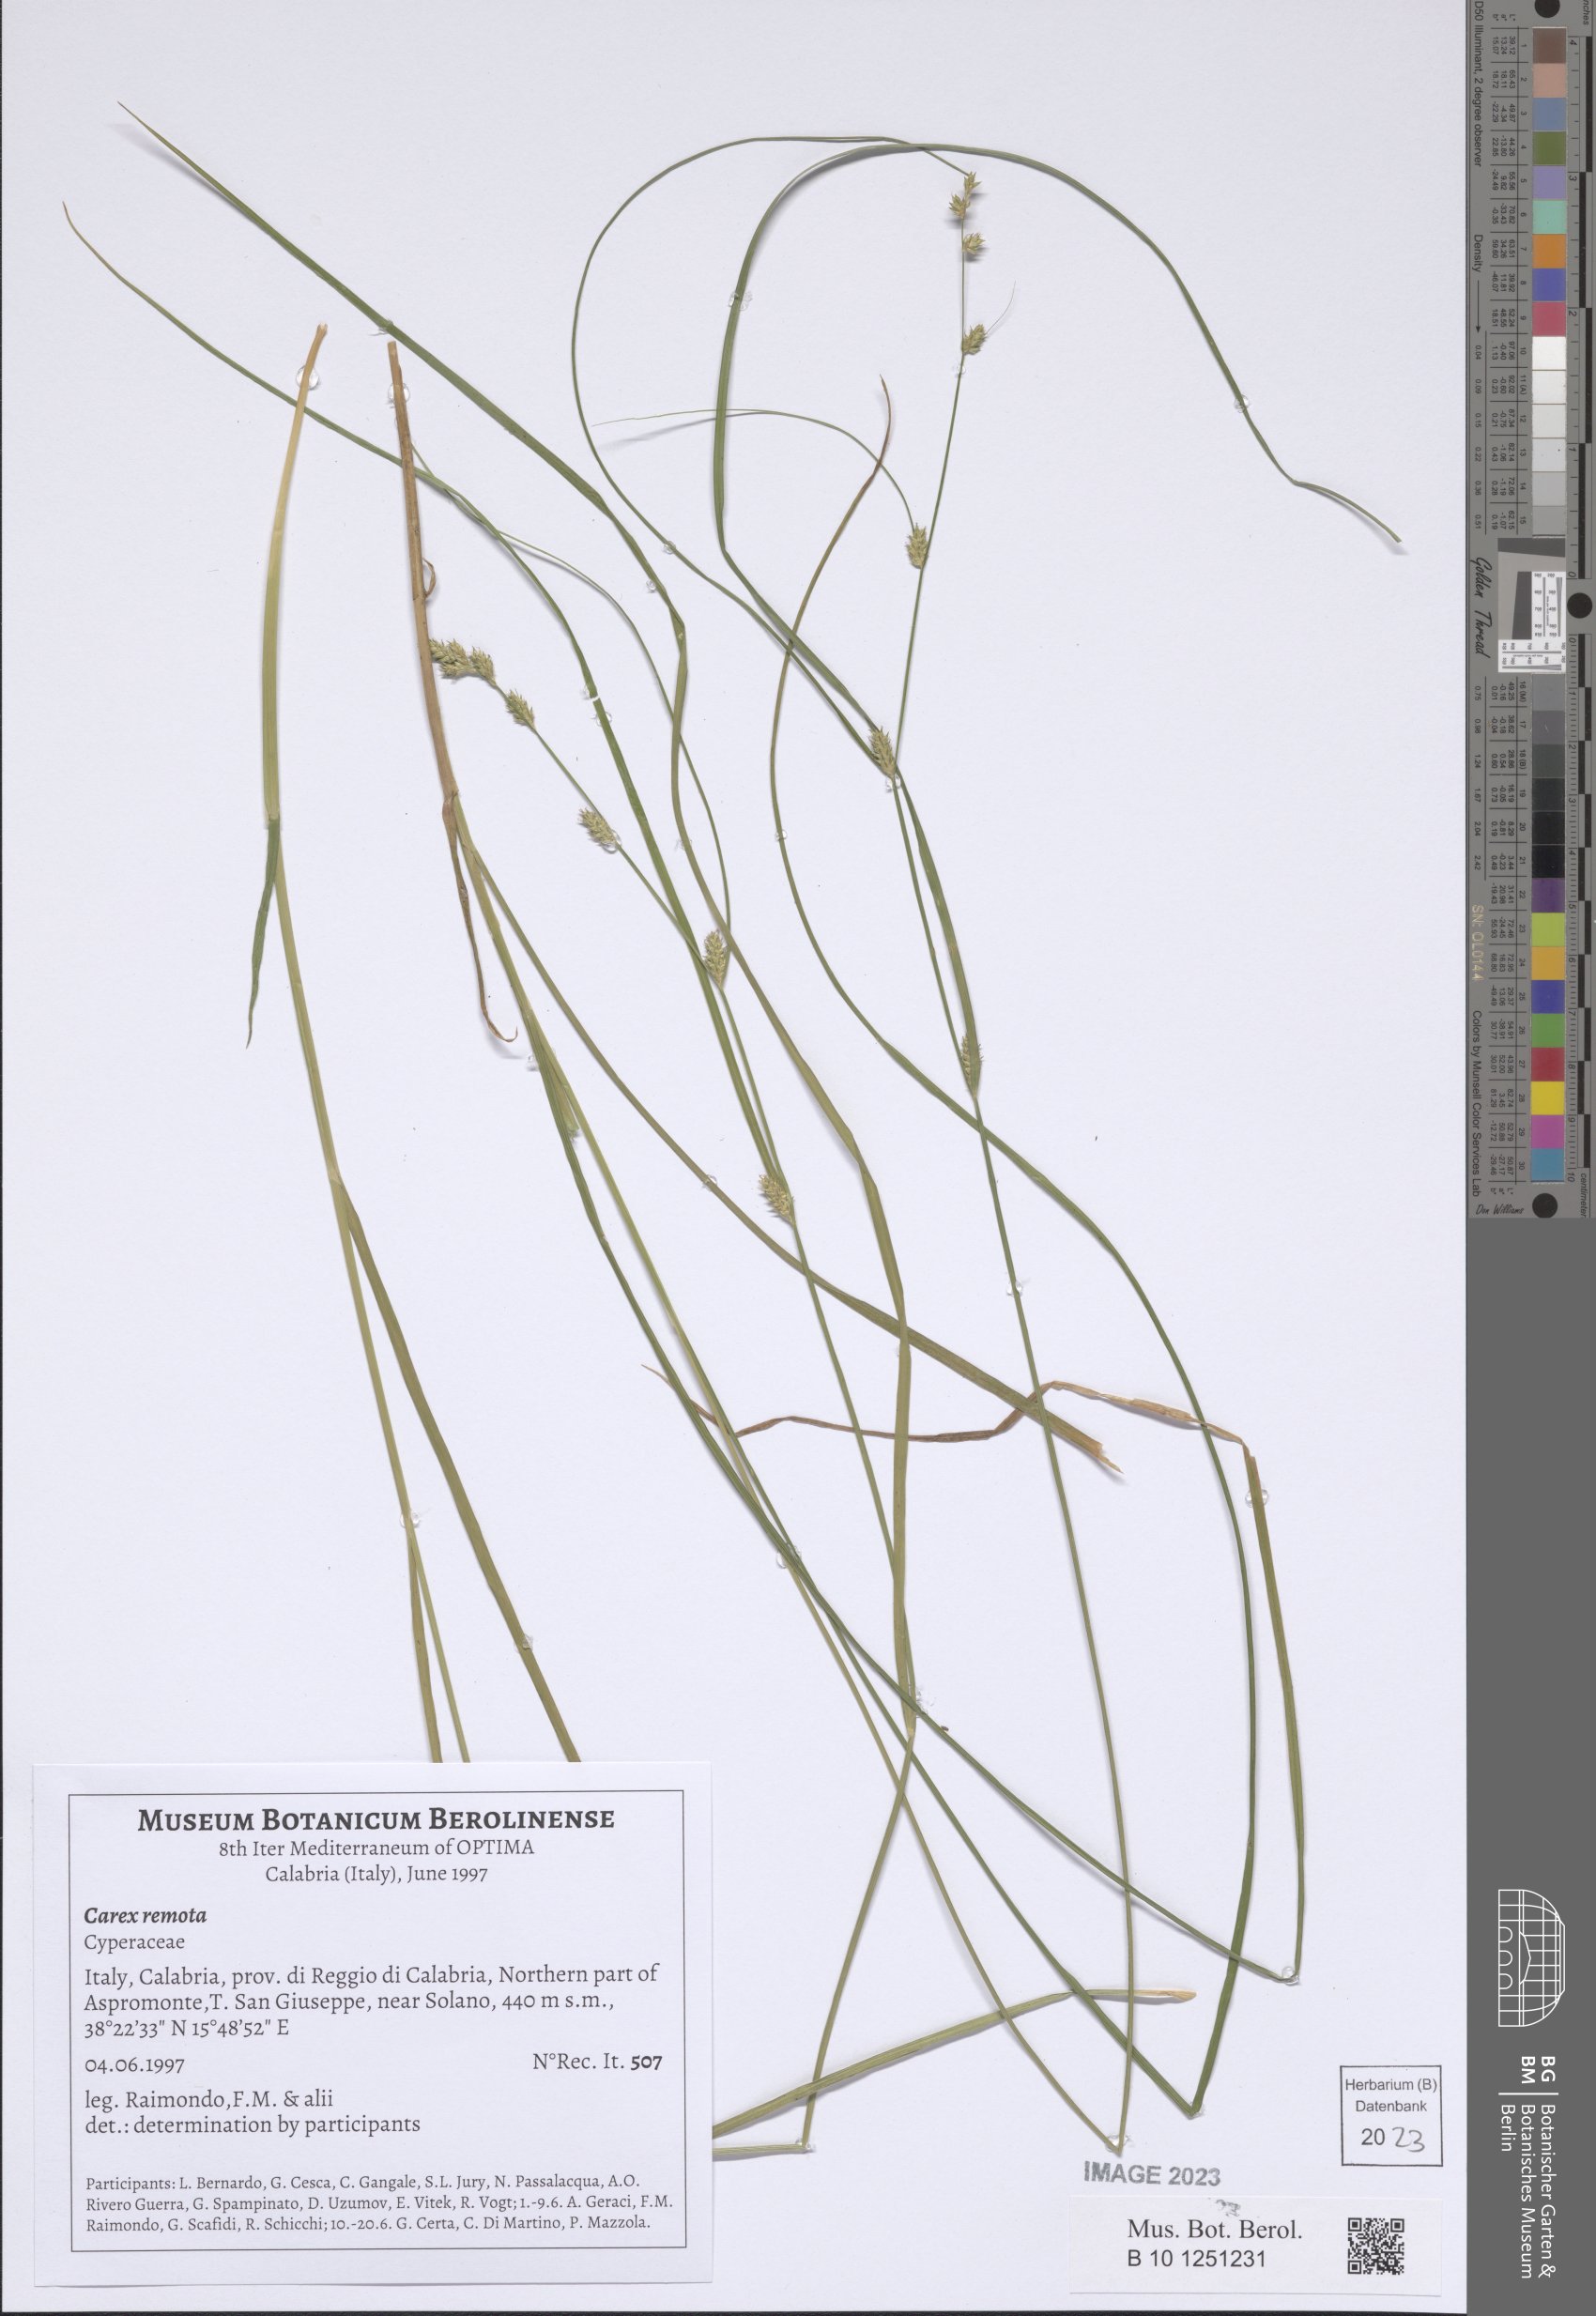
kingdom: Plantae
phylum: Tracheophyta
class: Liliopsida
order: Poales
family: Cyperaceae
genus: Carex
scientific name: Carex remota
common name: Remote sedge
